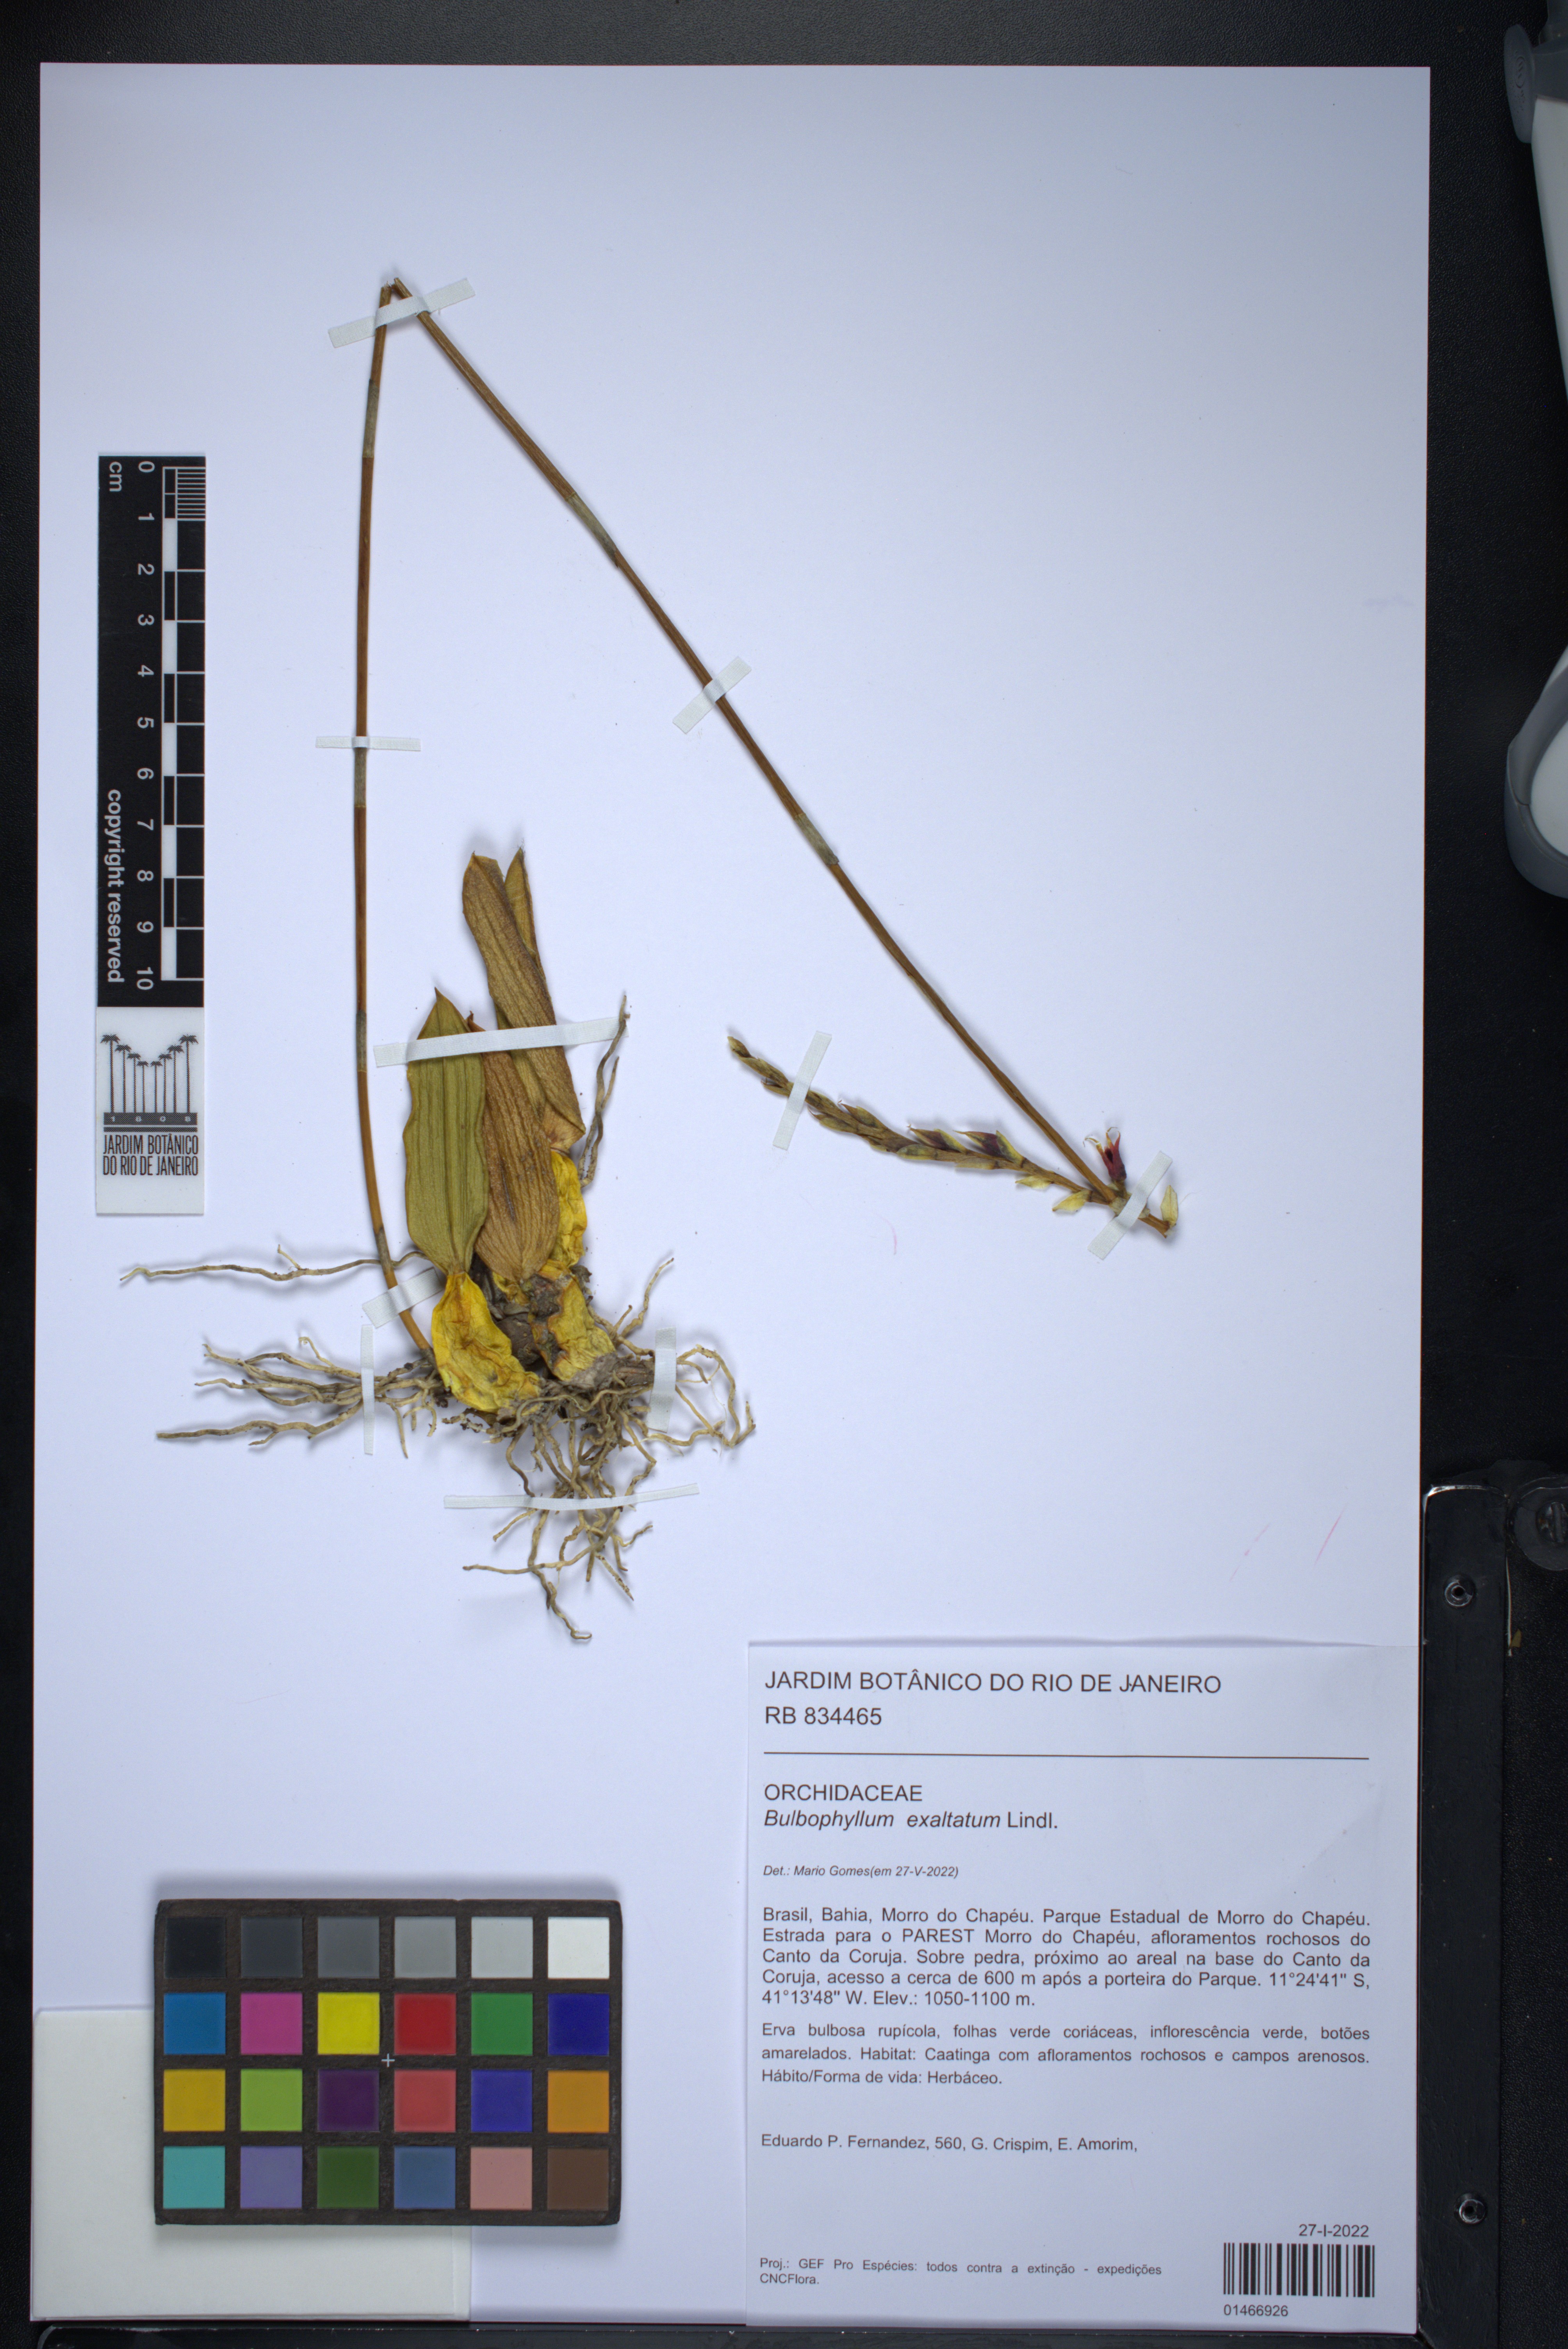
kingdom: Plantae
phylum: Tracheophyta
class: Liliopsida
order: Asparagales
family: Orchidaceae
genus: Bulbophyllum
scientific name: Bulbophyllum exaltatum
